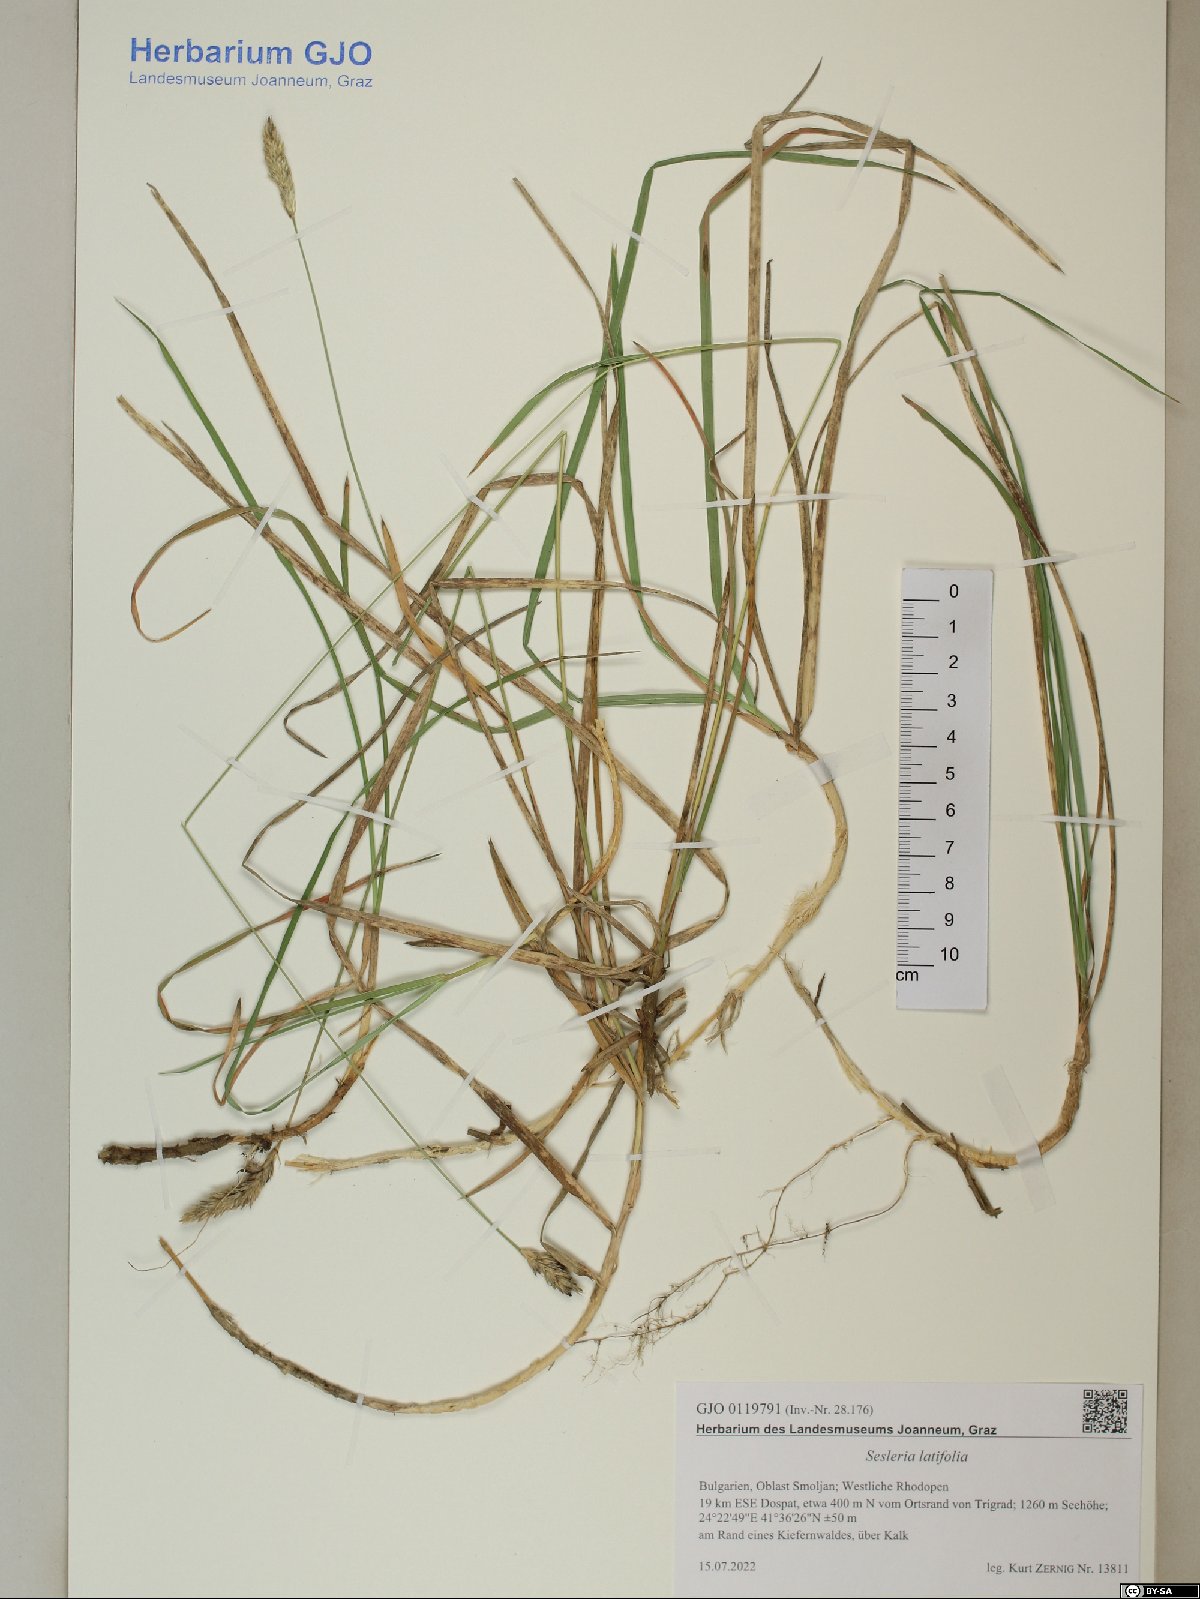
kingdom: Plantae
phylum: Tracheophyta
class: Liliopsida
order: Poales
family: Poaceae
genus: Sesleria
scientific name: Sesleria latifolia
